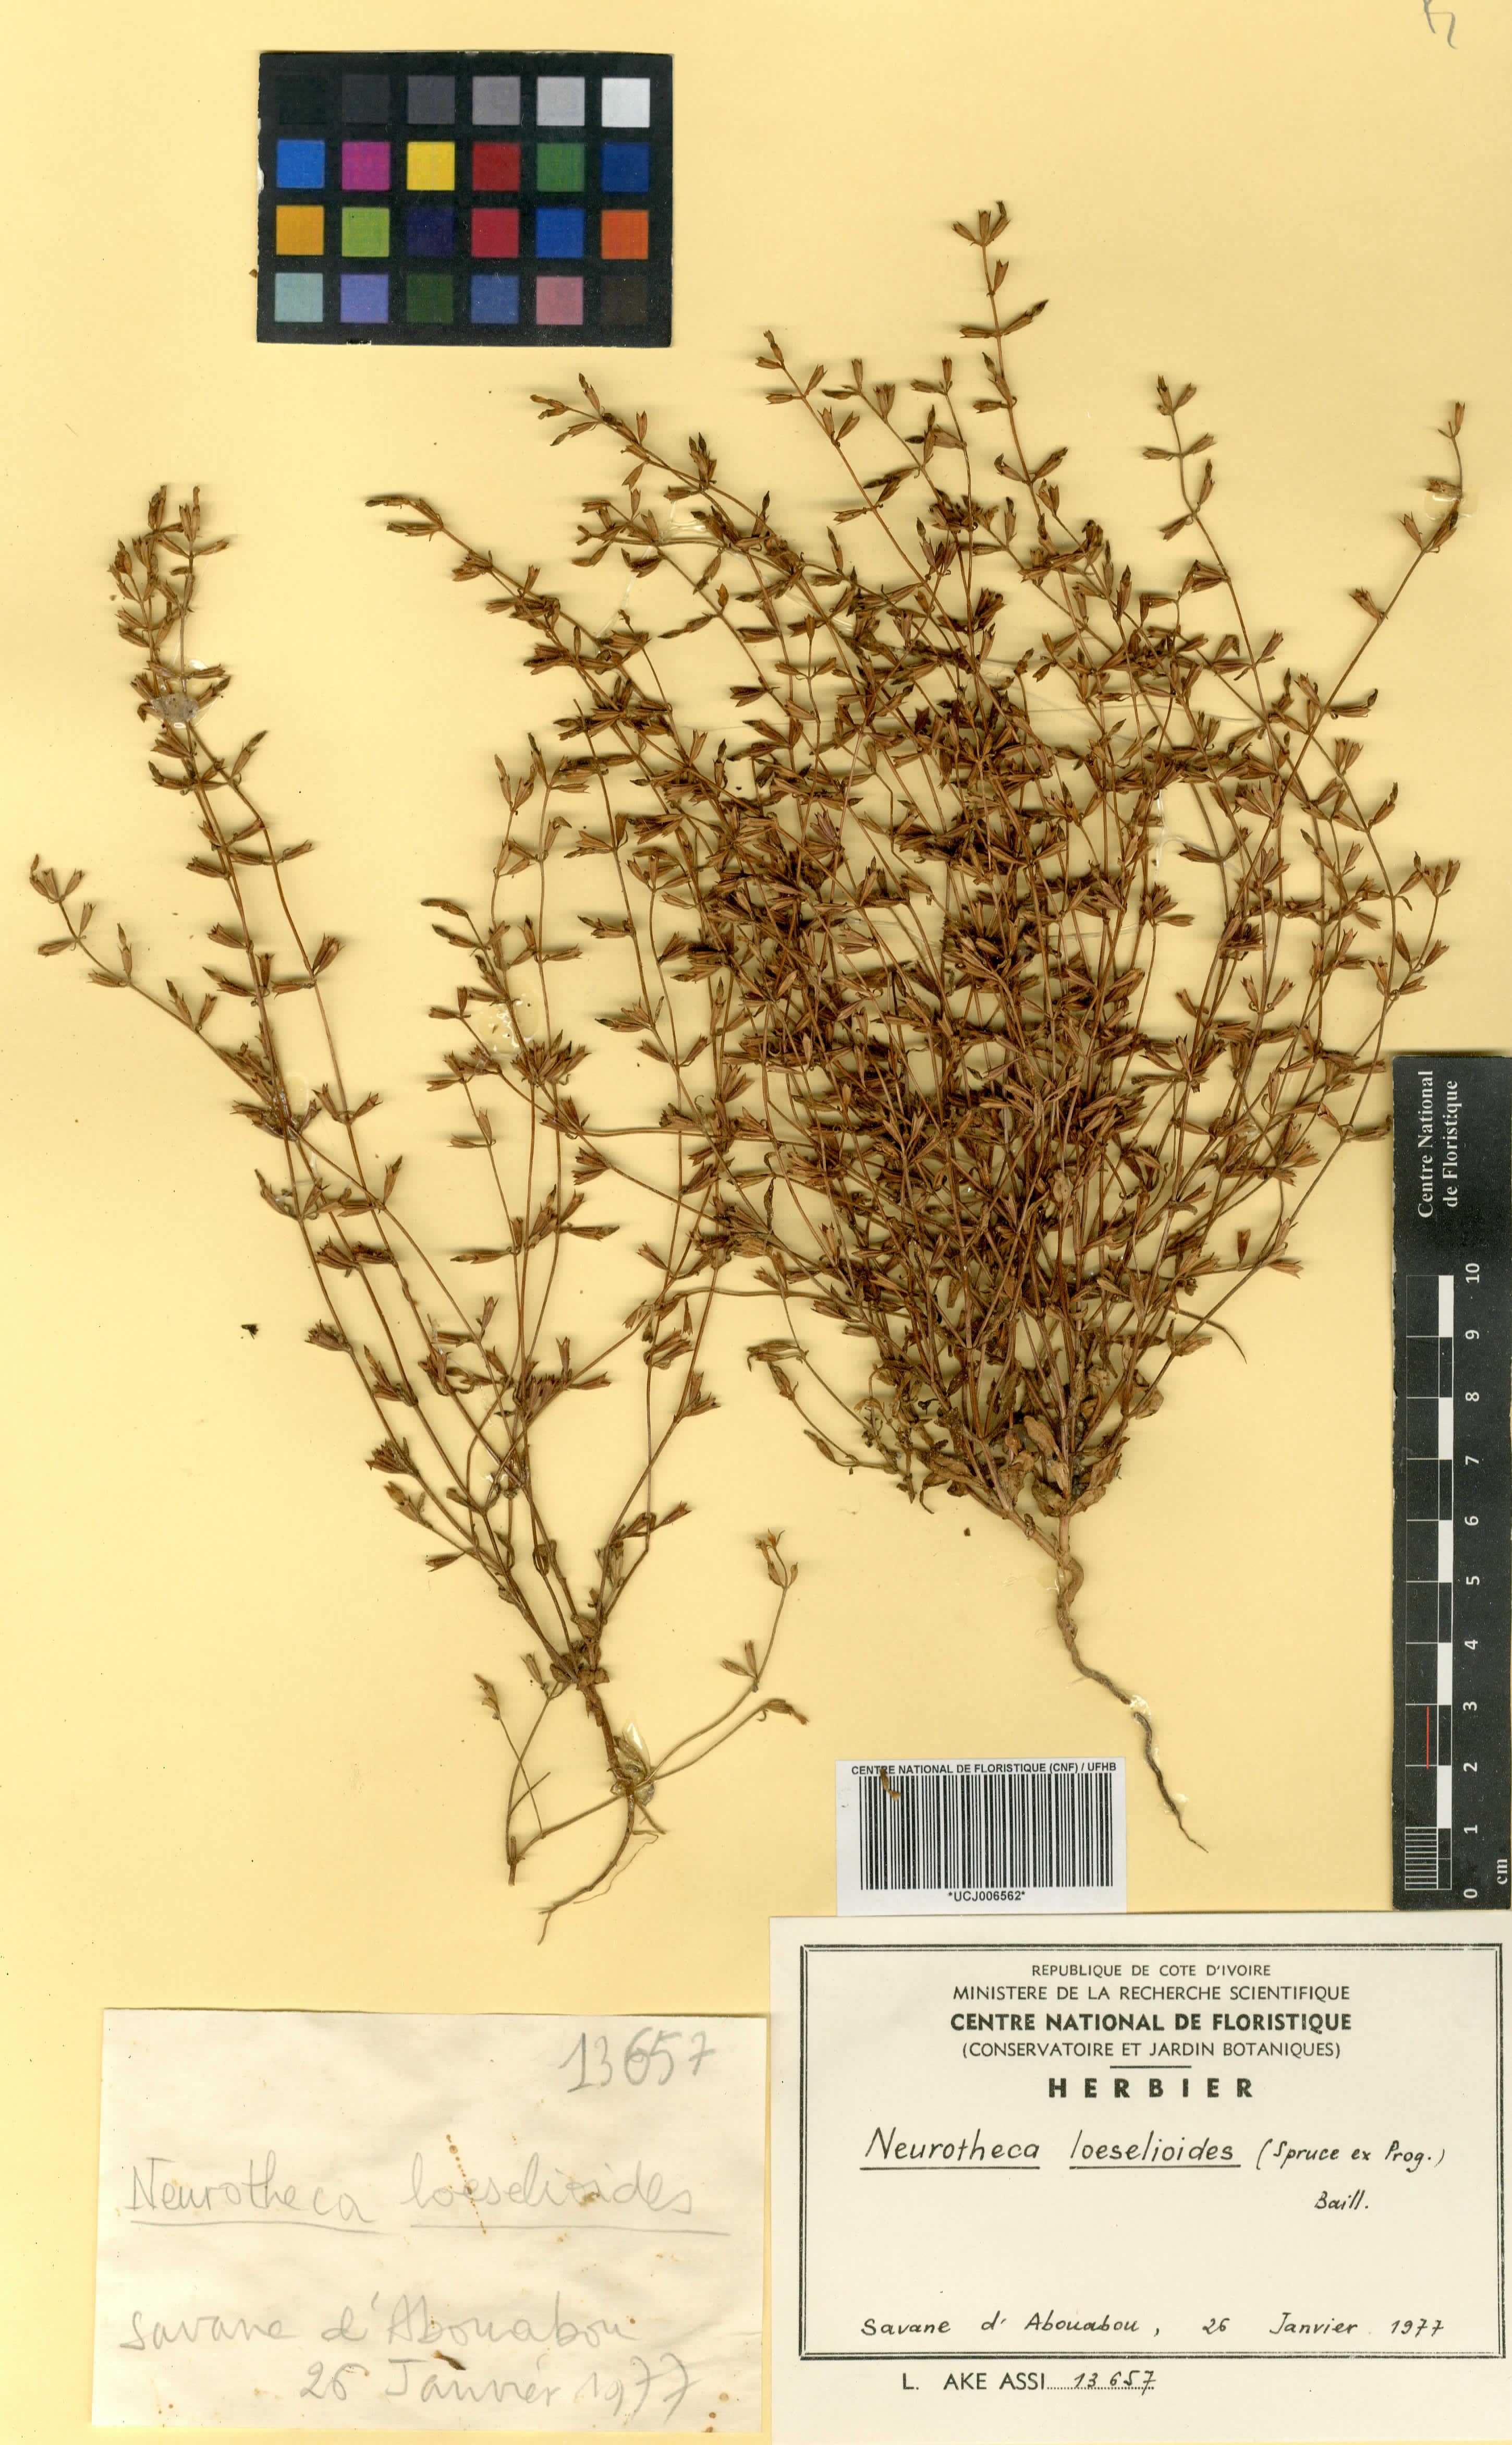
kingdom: Plantae
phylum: Tracheophyta
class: Magnoliopsida
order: Gentianales
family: Gentianaceae
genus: Neurotheca
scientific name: Neurotheca loeselioides
